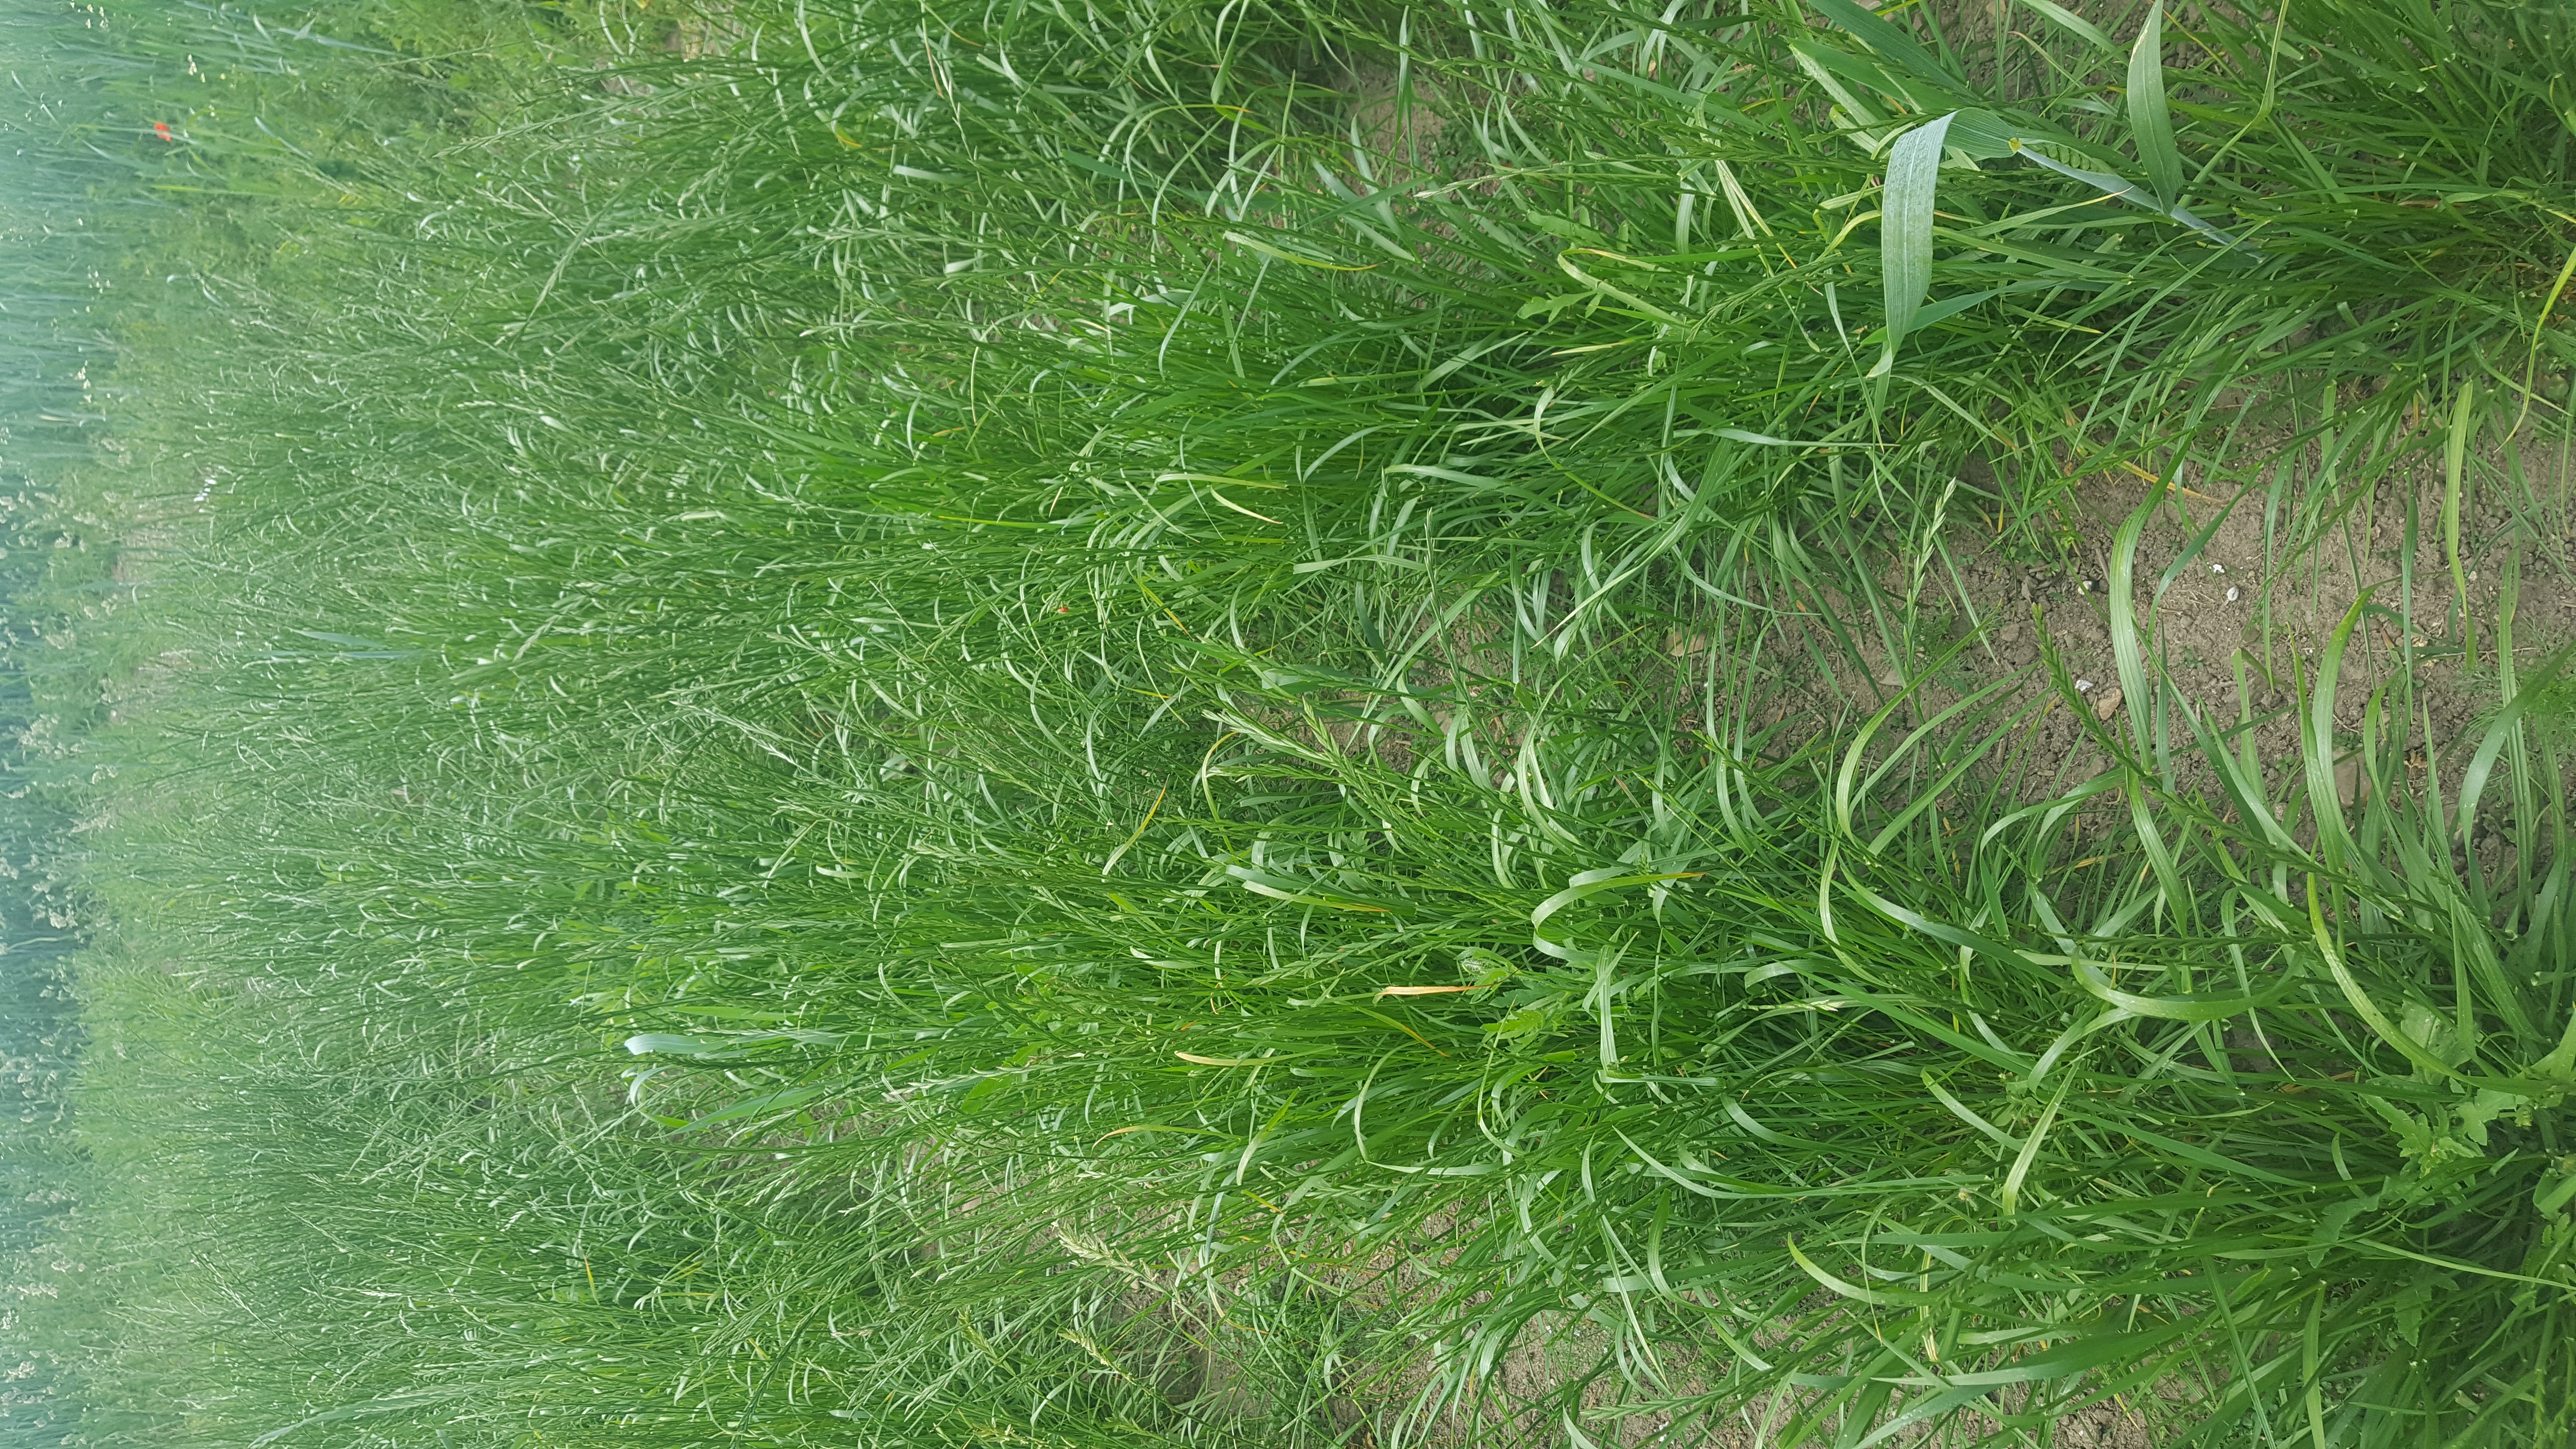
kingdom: Plantae
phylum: Tracheophyta
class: Liliopsida
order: Poales
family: Poaceae
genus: Lolium
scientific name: Lolium perenne
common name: Perennial ryegrass
